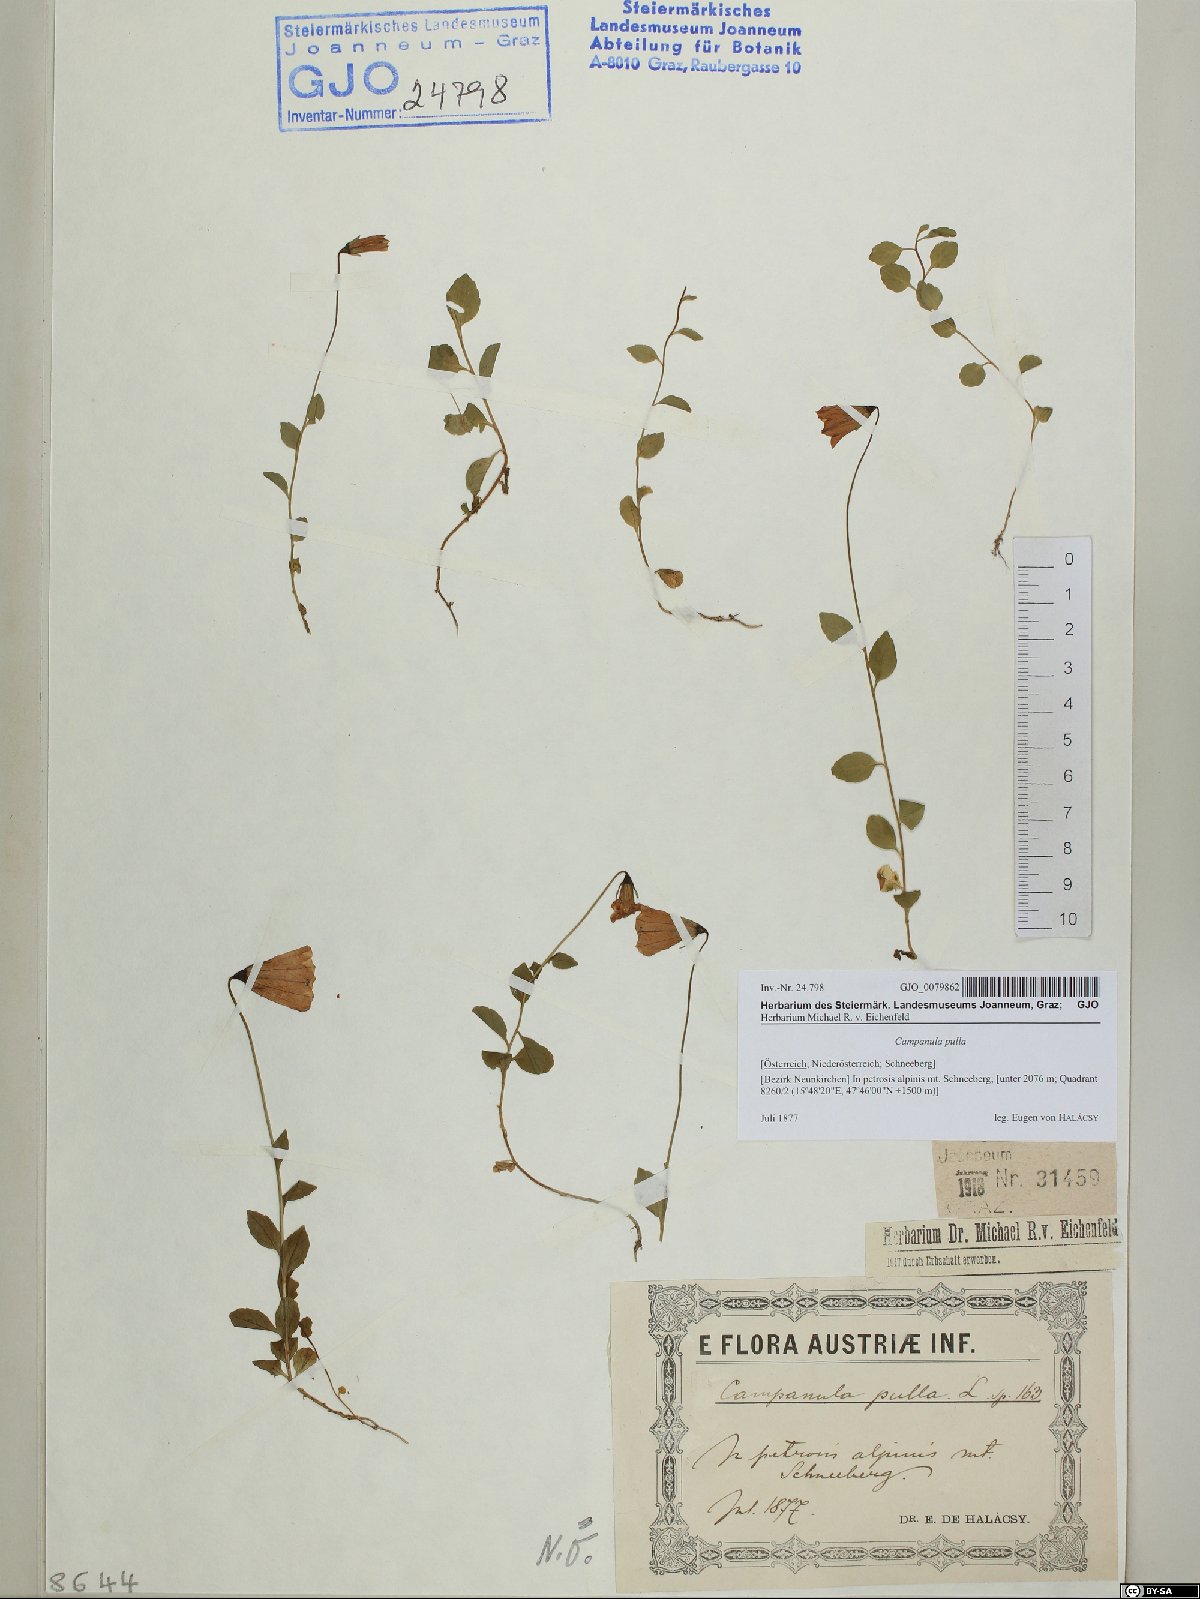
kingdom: Plantae
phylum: Tracheophyta
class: Magnoliopsida
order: Asterales
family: Campanulaceae
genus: Campanula
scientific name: Campanula pulla
